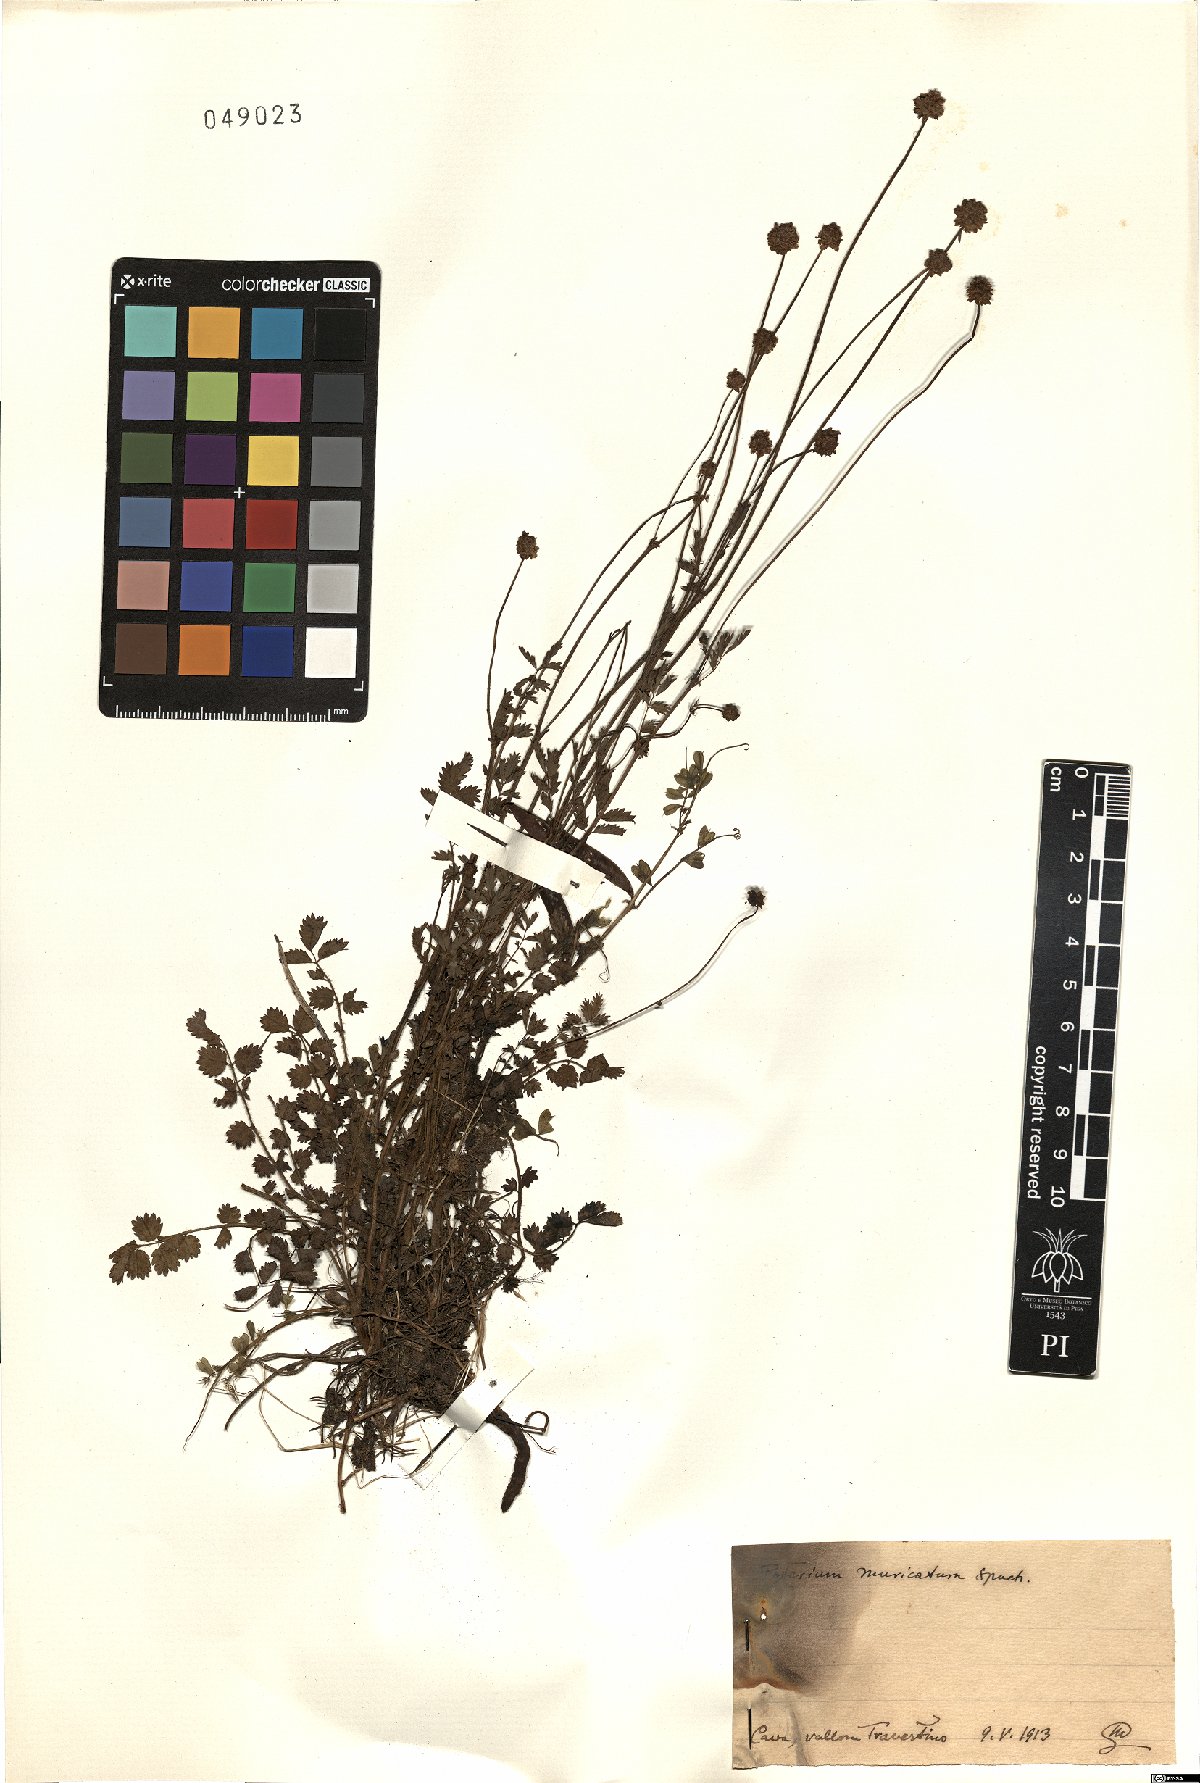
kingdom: Plantae
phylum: Tracheophyta
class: Magnoliopsida
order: Rosales
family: Rosaceae
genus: Poterium
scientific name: Poterium sanguisorba
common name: Salad burnet
